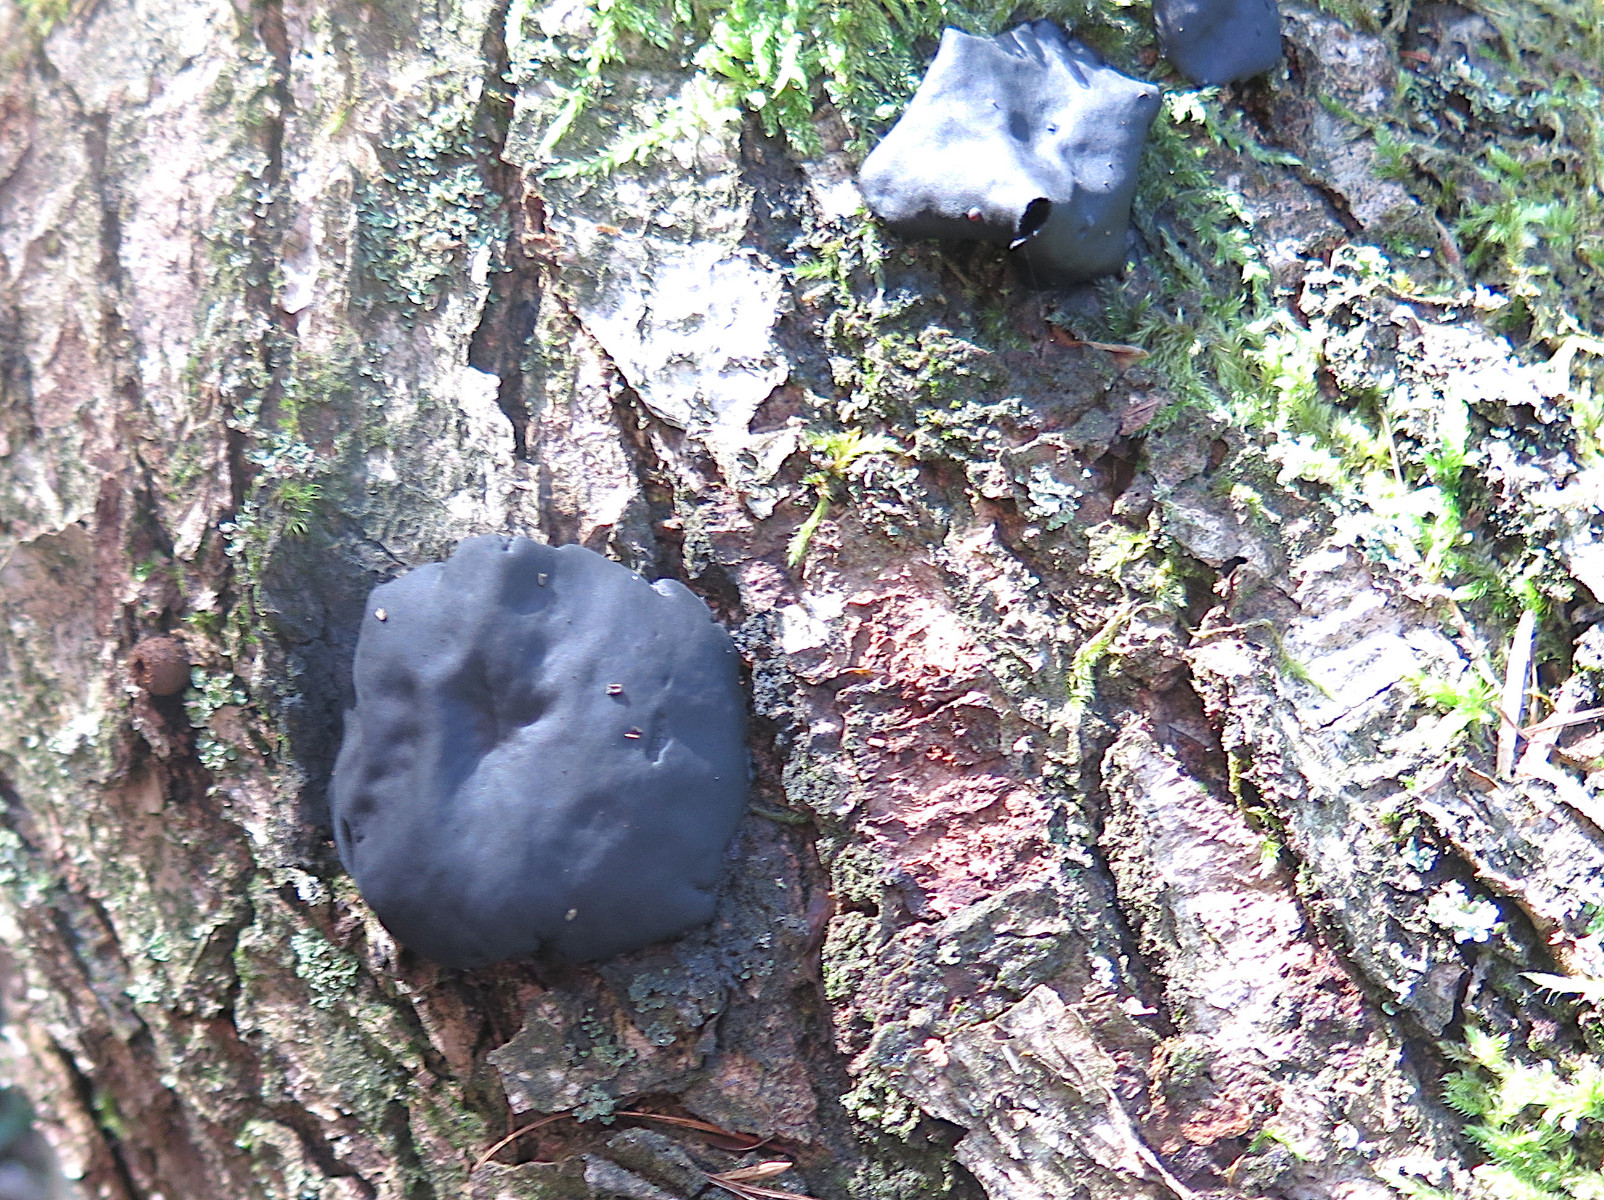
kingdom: Fungi
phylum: Ascomycota
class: Leotiomycetes
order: Phacidiales
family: Phacidiaceae
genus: Bulgaria
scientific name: Bulgaria inquinans
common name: afsmittende topsvamp
